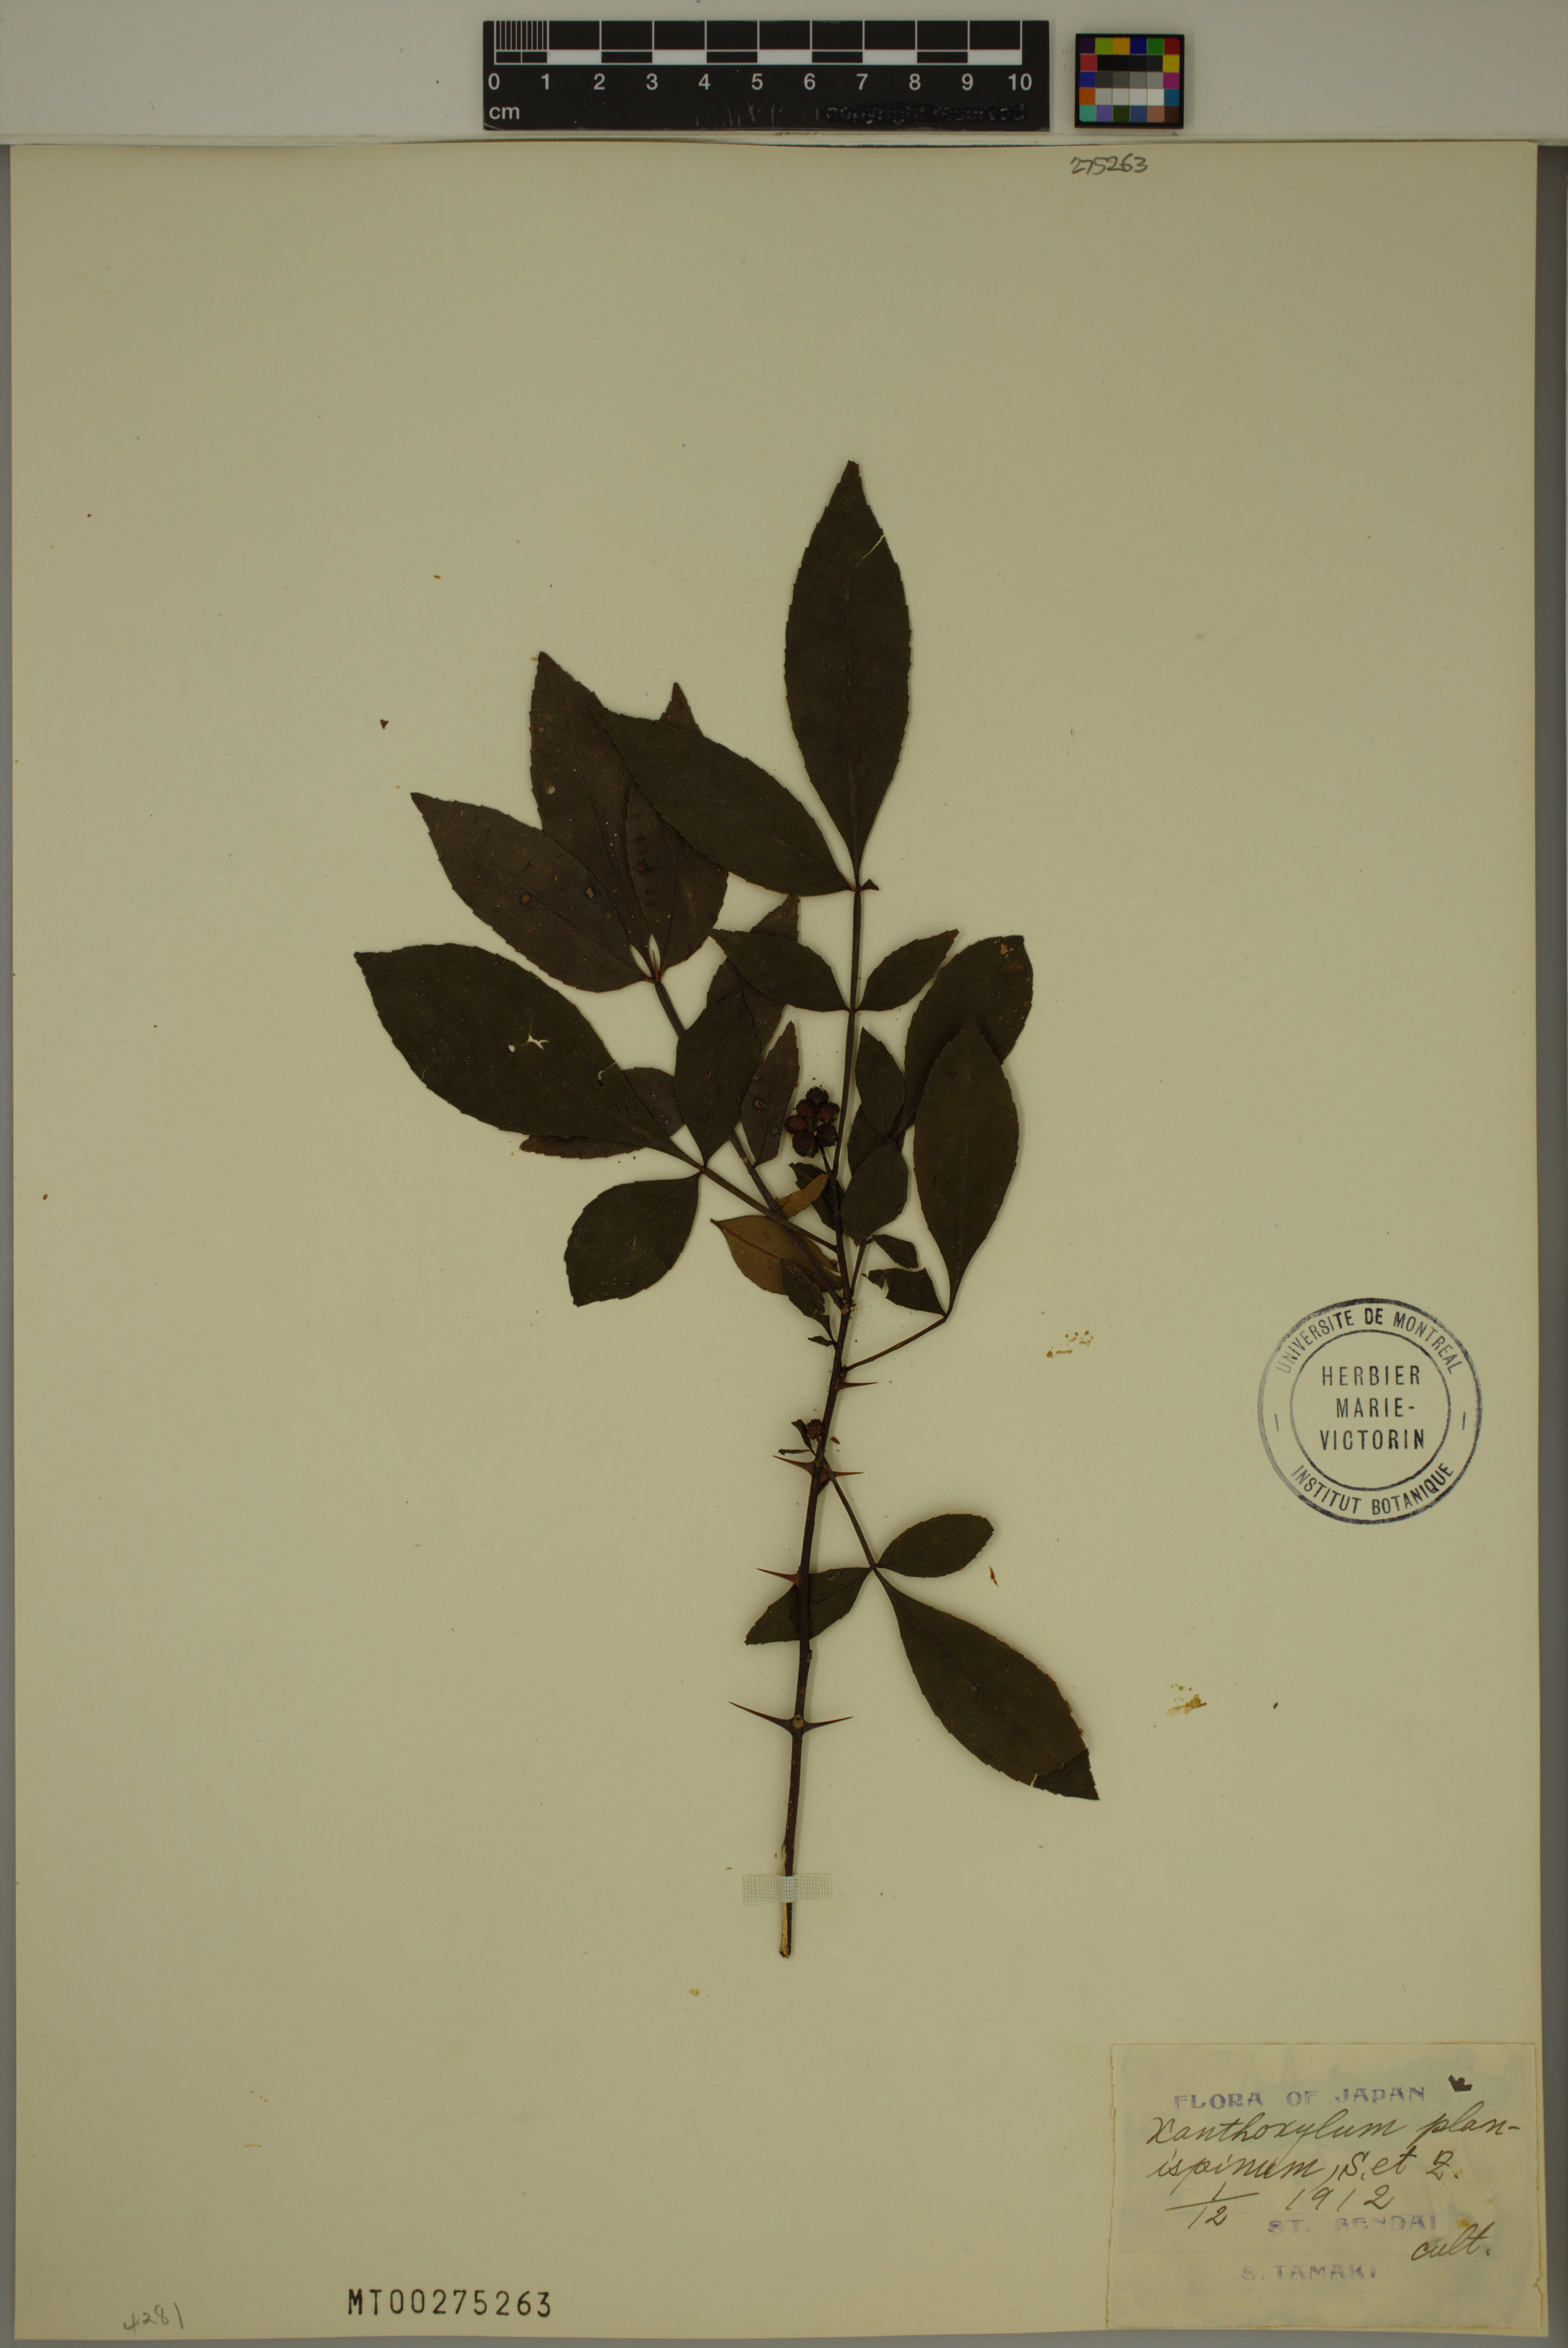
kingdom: Plantae
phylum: Tracheophyta
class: Magnoliopsida
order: Sapindales
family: Rutaceae
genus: Zanthoxylum
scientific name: Zanthoxylum armatum
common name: Winged prickly-ash
